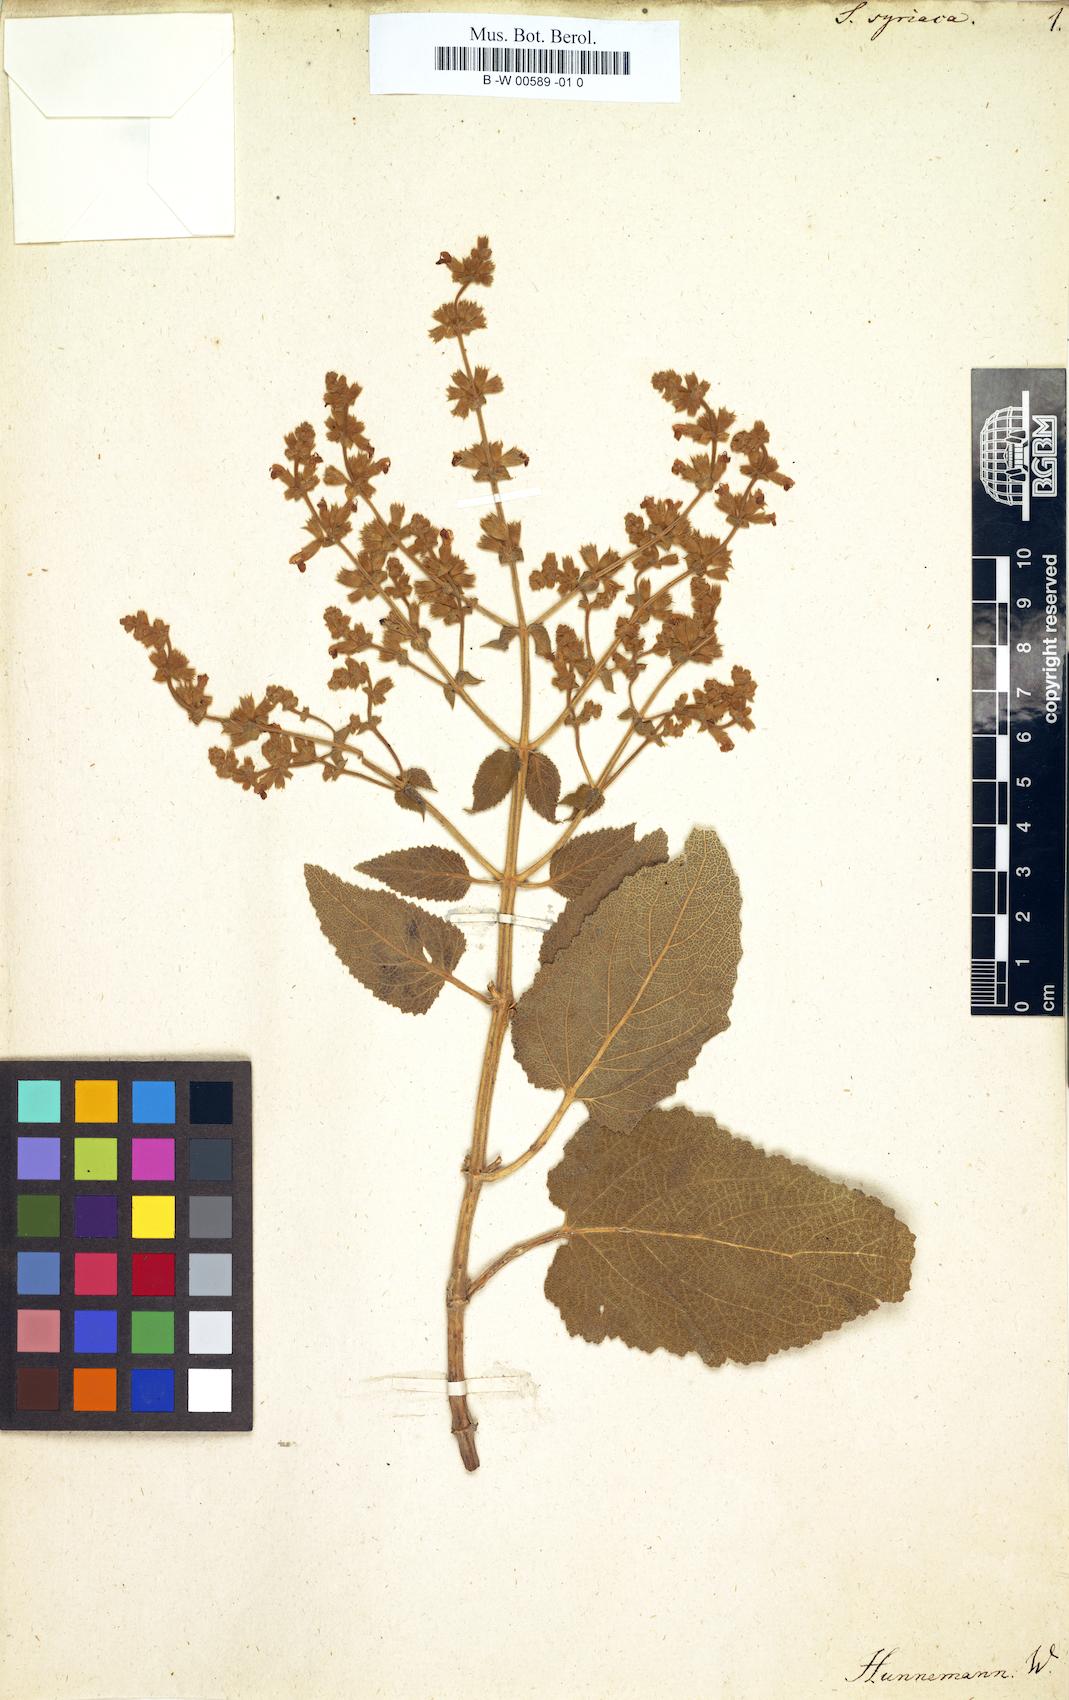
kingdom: Plantae
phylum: Tracheophyta
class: Magnoliopsida
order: Lamiales
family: Lamiaceae
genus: Salvia
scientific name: Salvia syriaca
